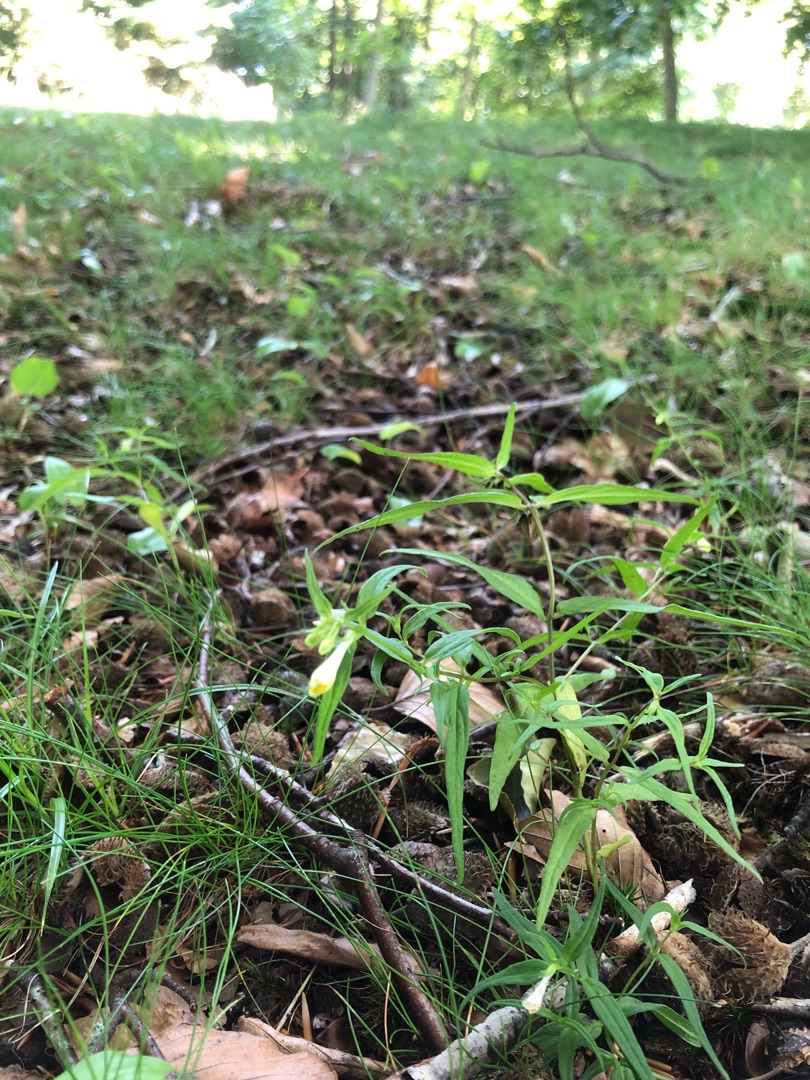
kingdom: Plantae
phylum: Tracheophyta
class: Magnoliopsida
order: Lamiales
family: Orobanchaceae
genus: Melampyrum
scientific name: Melampyrum pratense
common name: Almindelig kohvede
